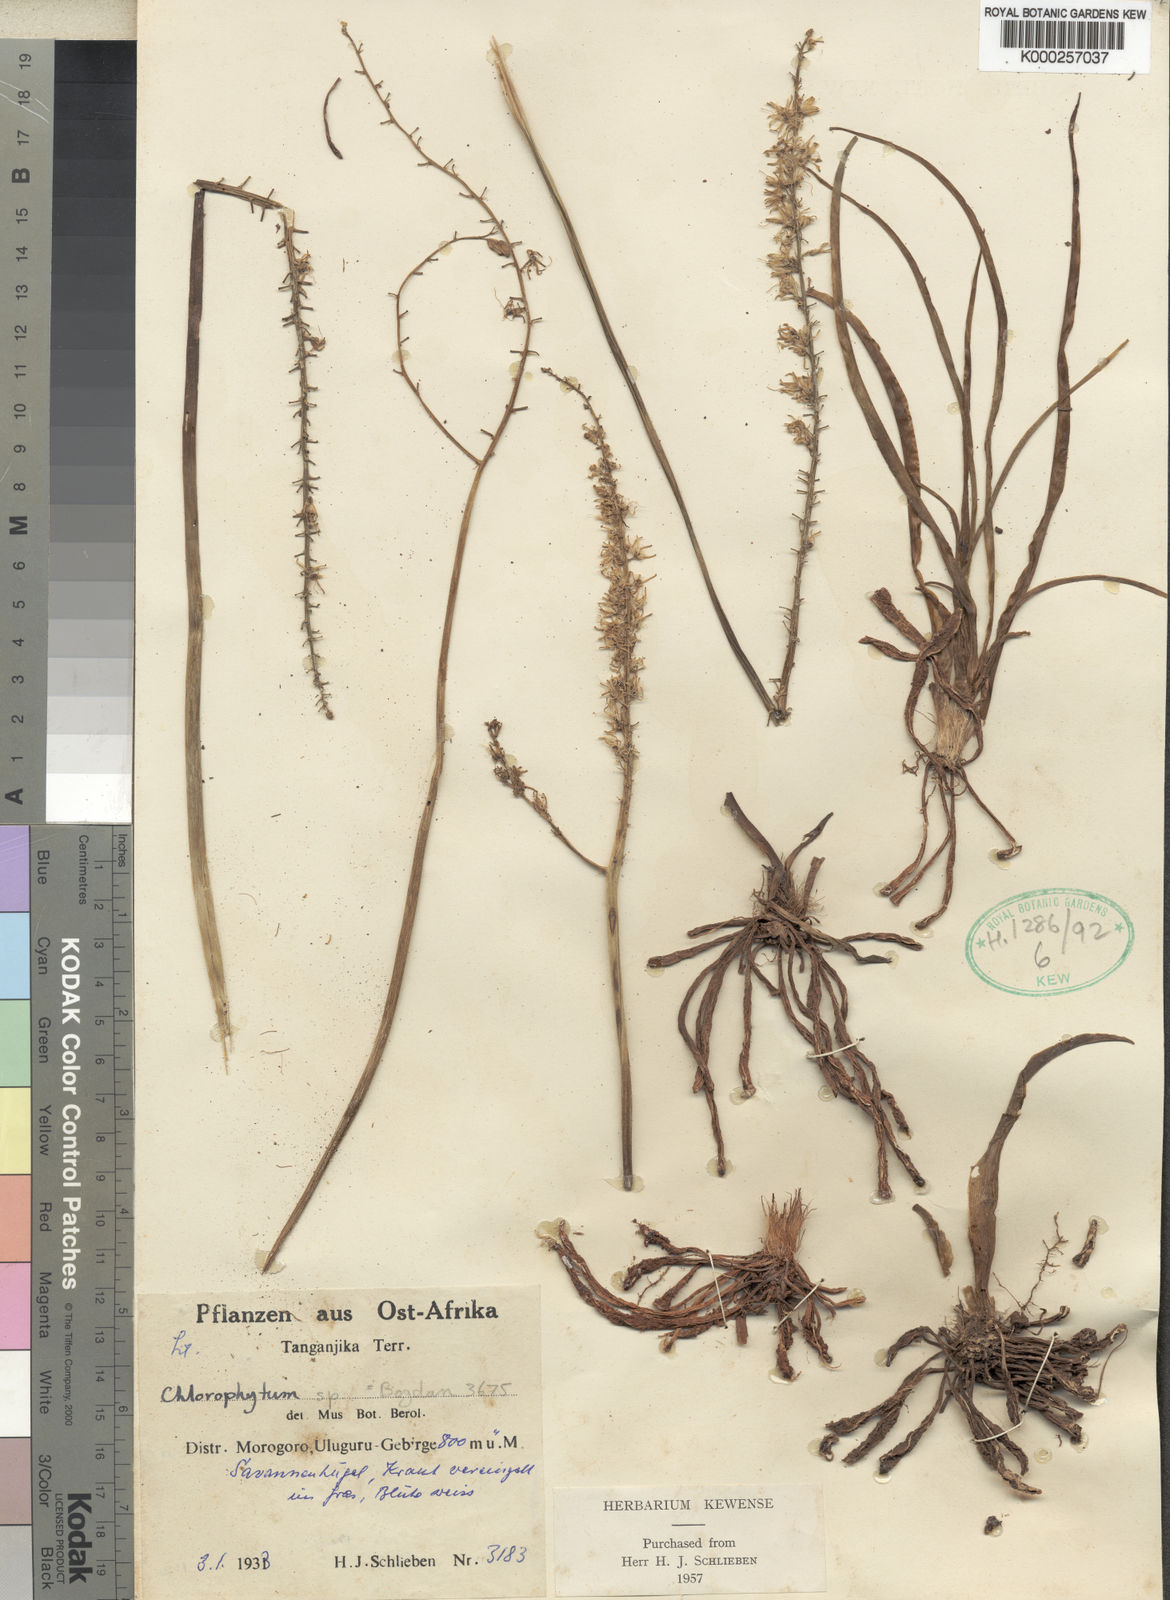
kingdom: Plantae
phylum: Tracheophyta
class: Liliopsida
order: Asparagales
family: Asparagaceae
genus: Chlorophytum
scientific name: Chlorophytum collinum
